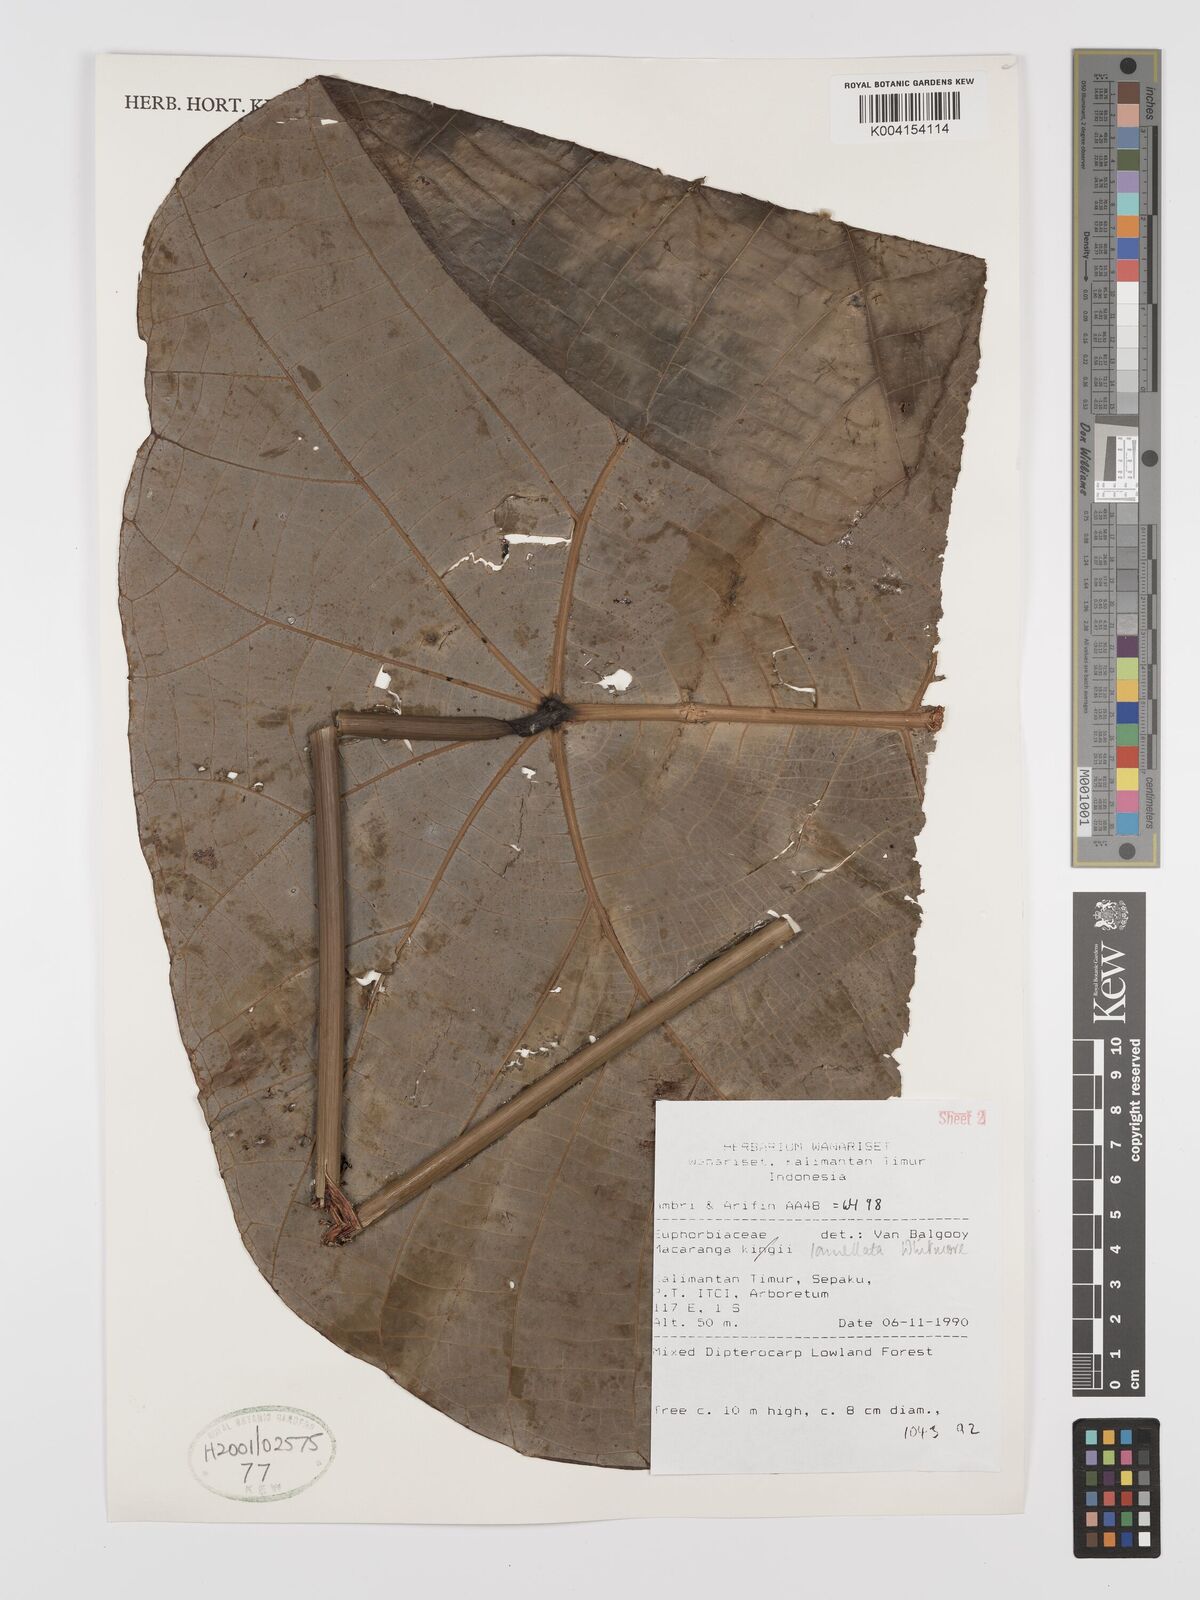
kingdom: Plantae
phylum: Tracheophyta
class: Magnoliopsida
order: Malpighiales
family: Euphorbiaceae
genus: Macaranga
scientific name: Macaranga lamellata
